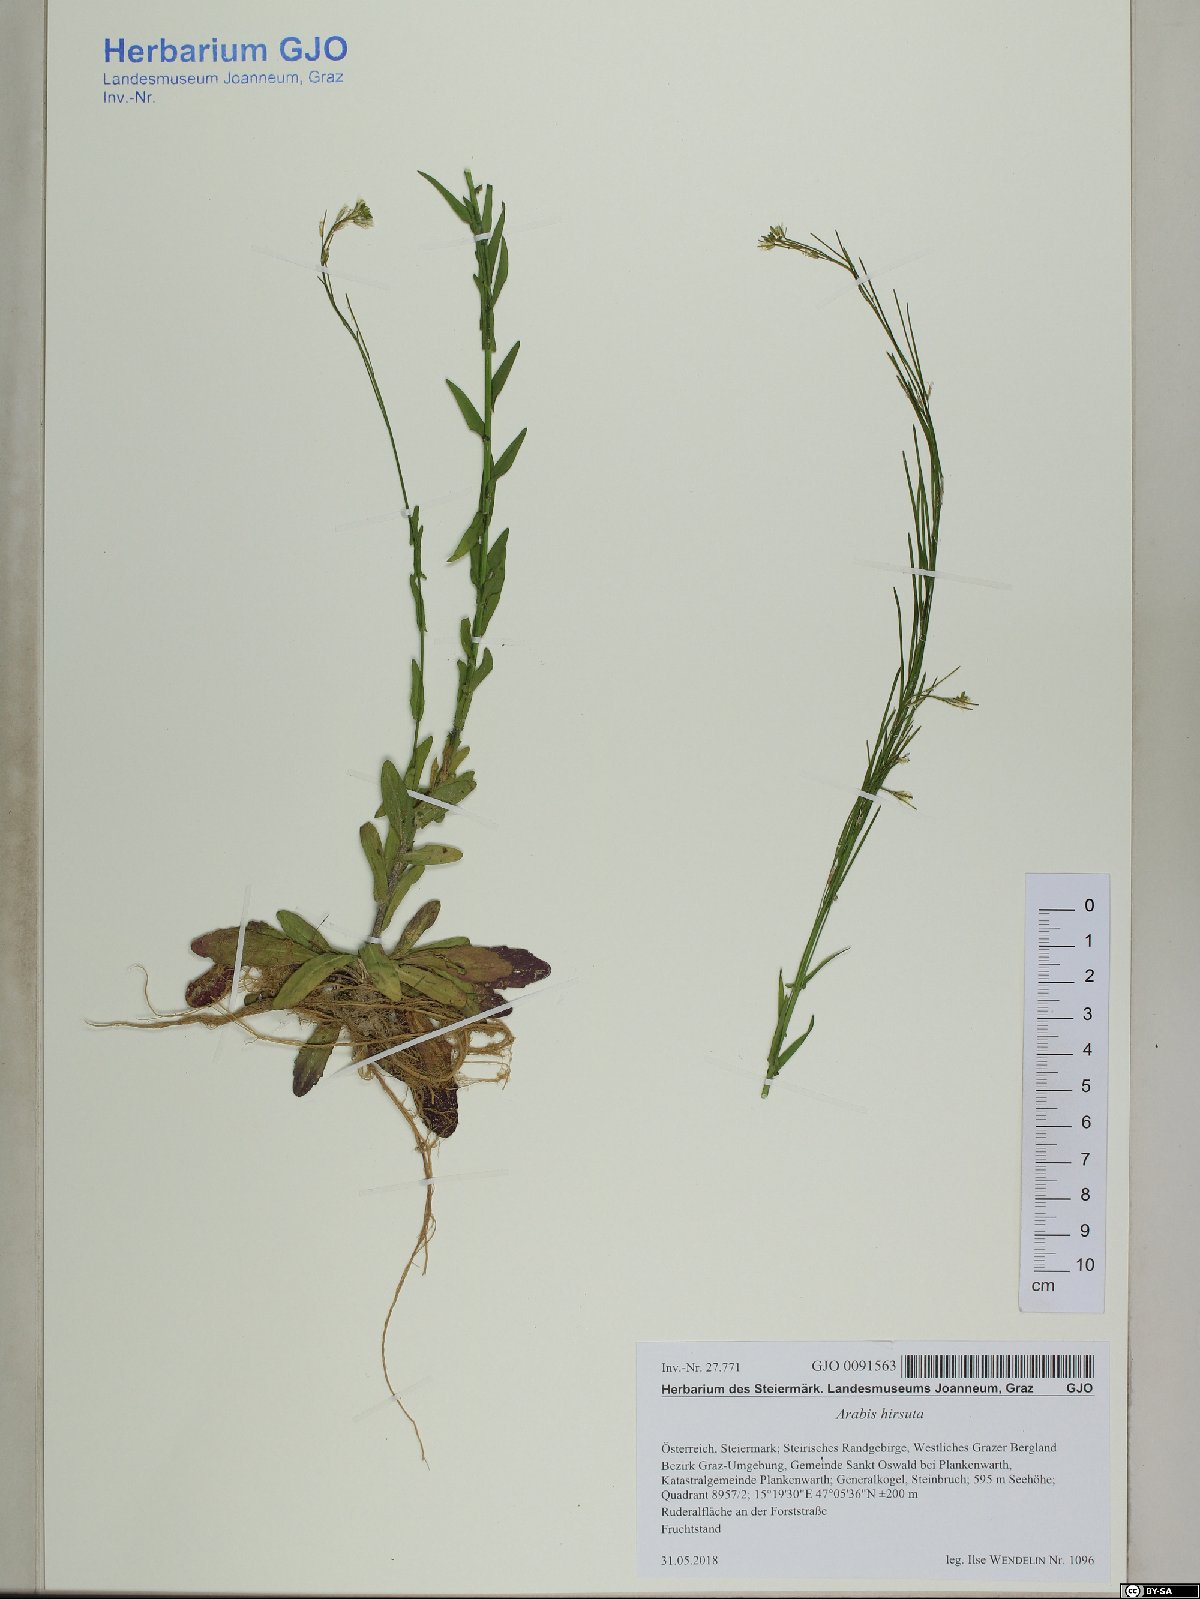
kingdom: Plantae
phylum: Tracheophyta
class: Magnoliopsida
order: Brassicales
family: Brassicaceae
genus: Arabis
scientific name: Arabis hirsuta
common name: Hairy rock-cress
